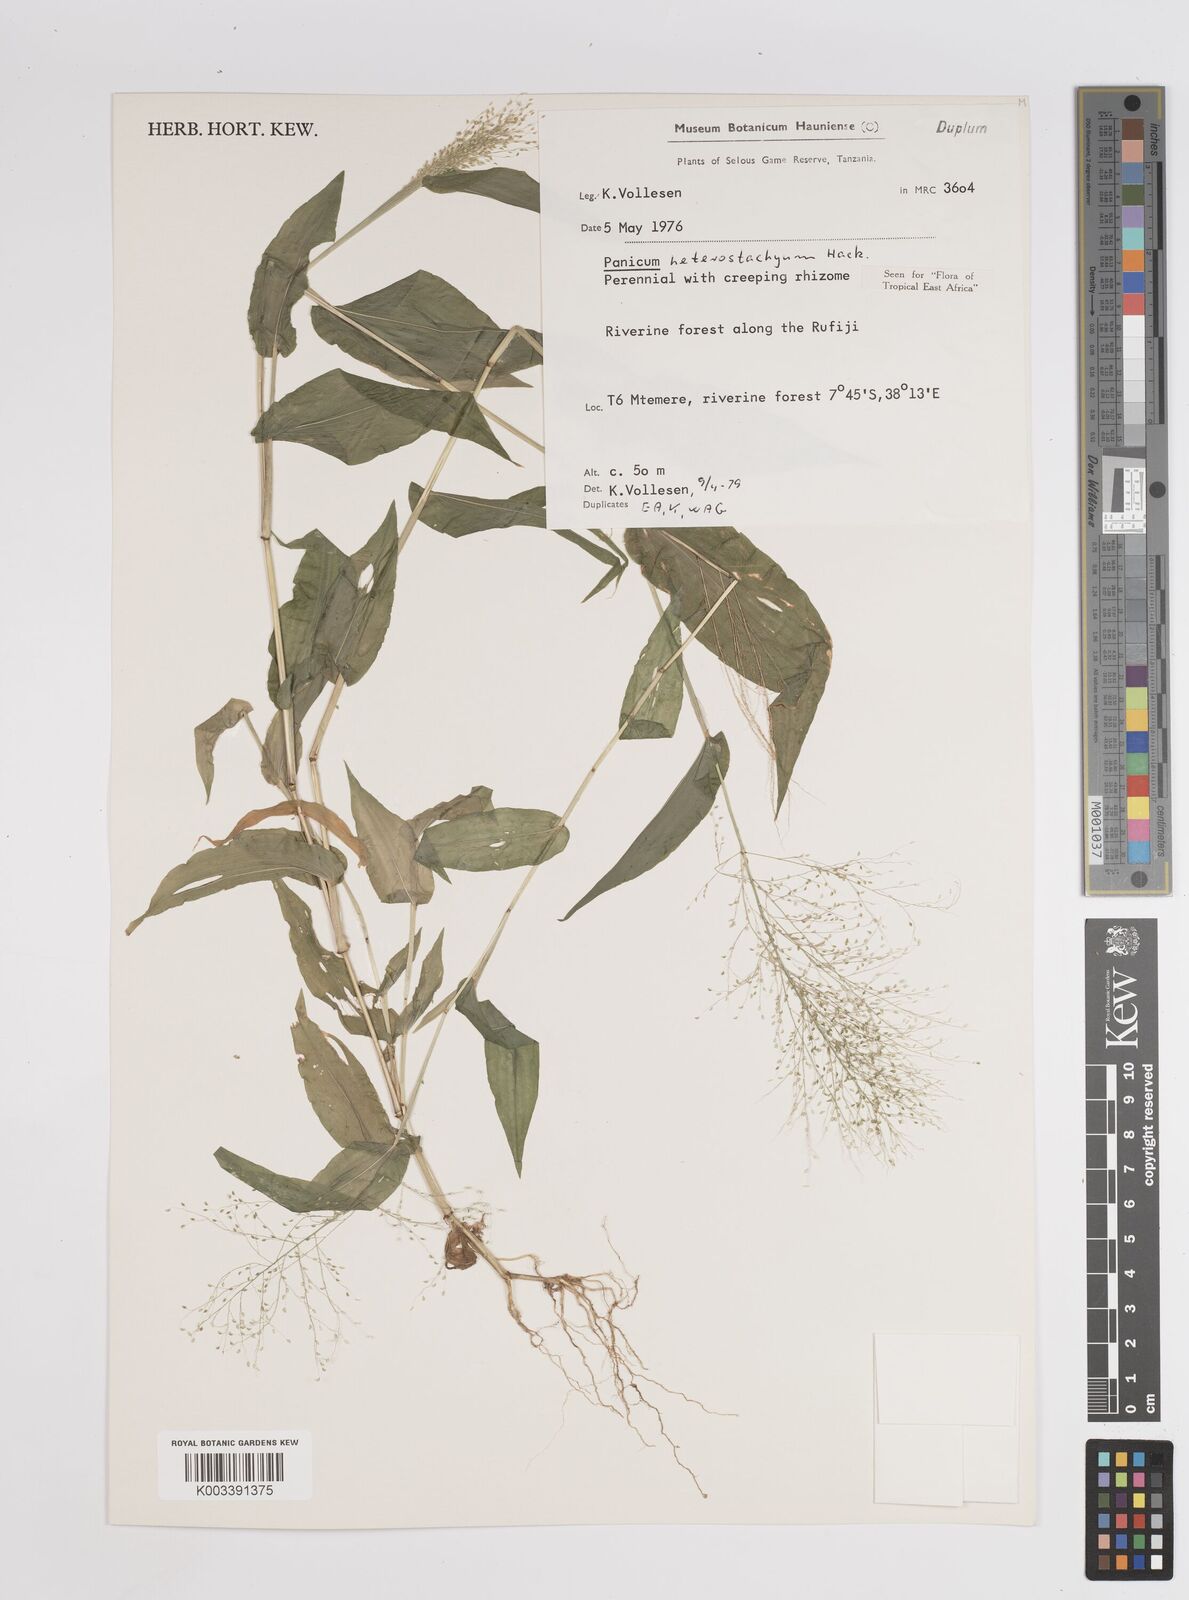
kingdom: Plantae
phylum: Tracheophyta
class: Liliopsida
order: Poales
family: Poaceae
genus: Panicum
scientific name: Panicum hirtum
